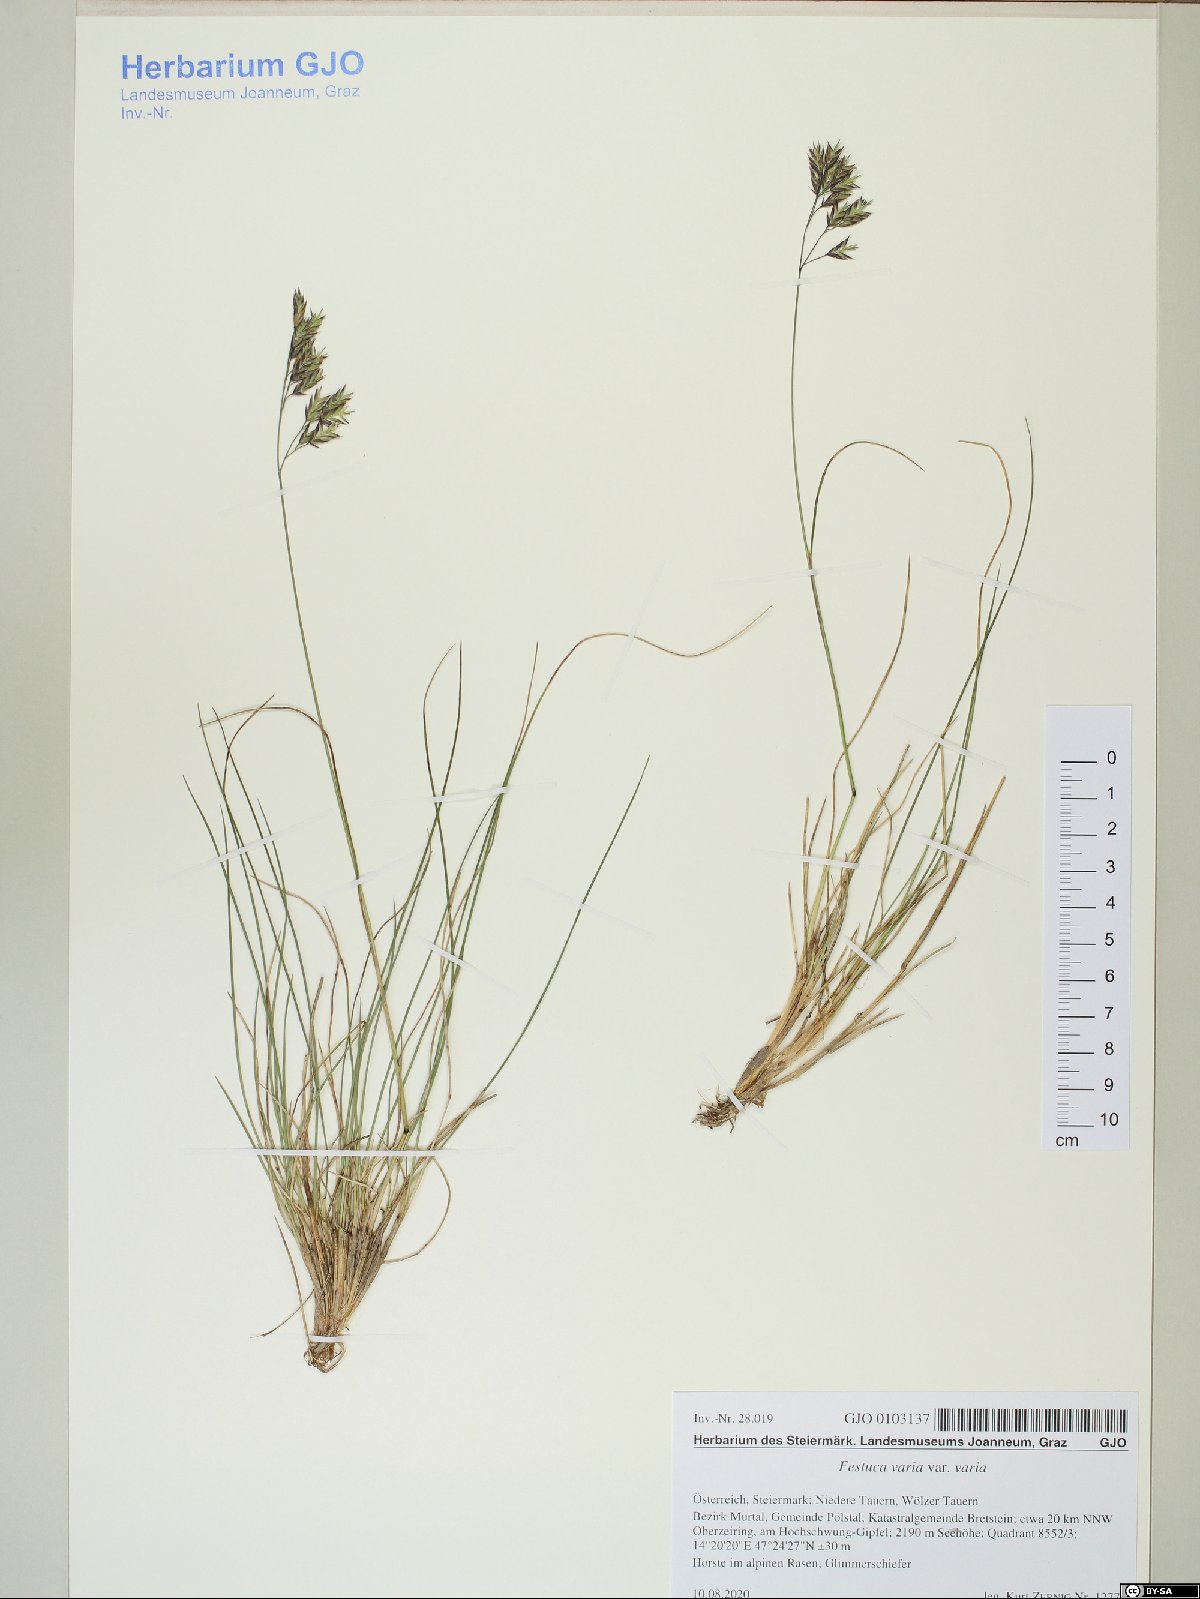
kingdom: Plantae
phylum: Tracheophyta
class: Liliopsida
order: Poales
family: Poaceae
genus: Festuca
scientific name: Festuca varia
